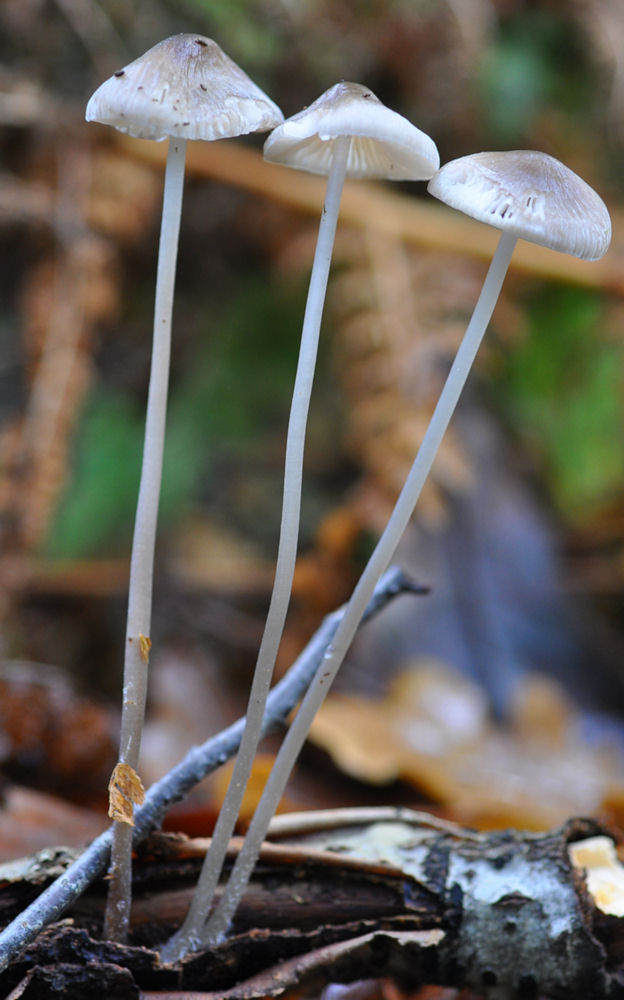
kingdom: Fungi
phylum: Basidiomycota
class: Agaricomycetes
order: Agaricales
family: Mycenaceae
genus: Mycena
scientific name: Mycena vitilis
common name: blankstokket huesvamp
